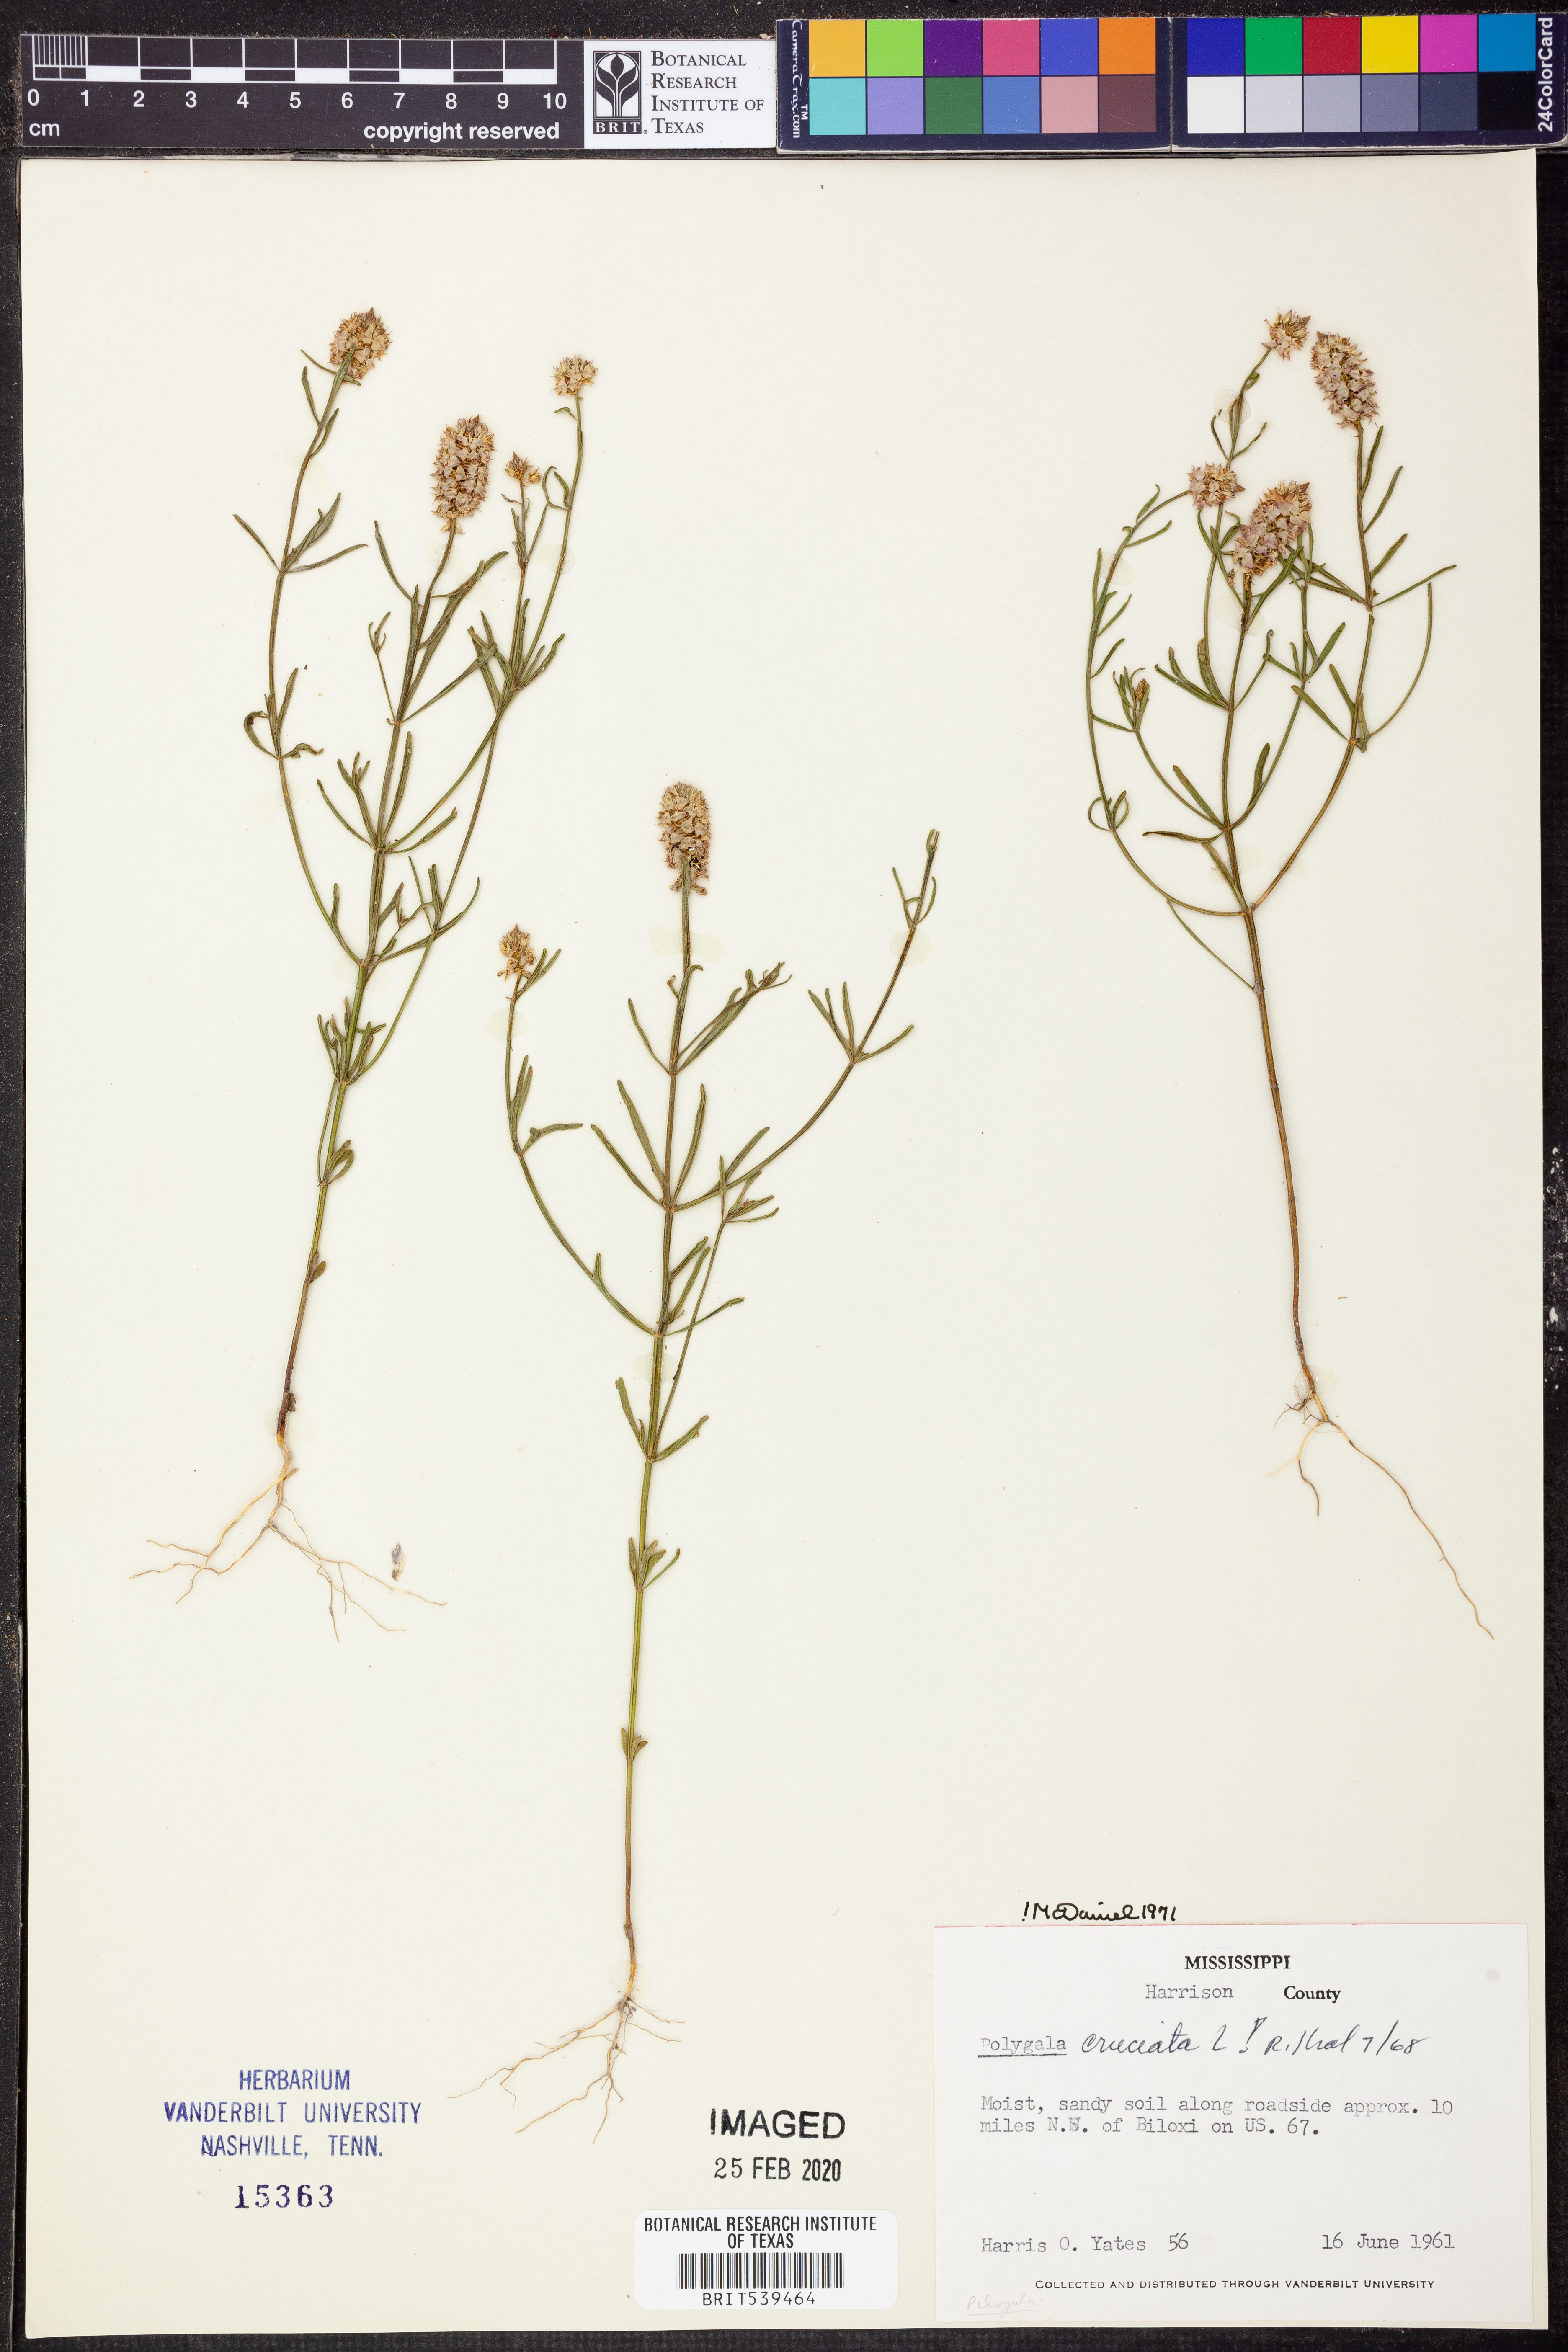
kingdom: Plantae
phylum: Tracheophyta
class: Magnoliopsida
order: Fabales
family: Polygalaceae
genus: Polygala
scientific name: Polygala cruciata
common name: Drumheads
